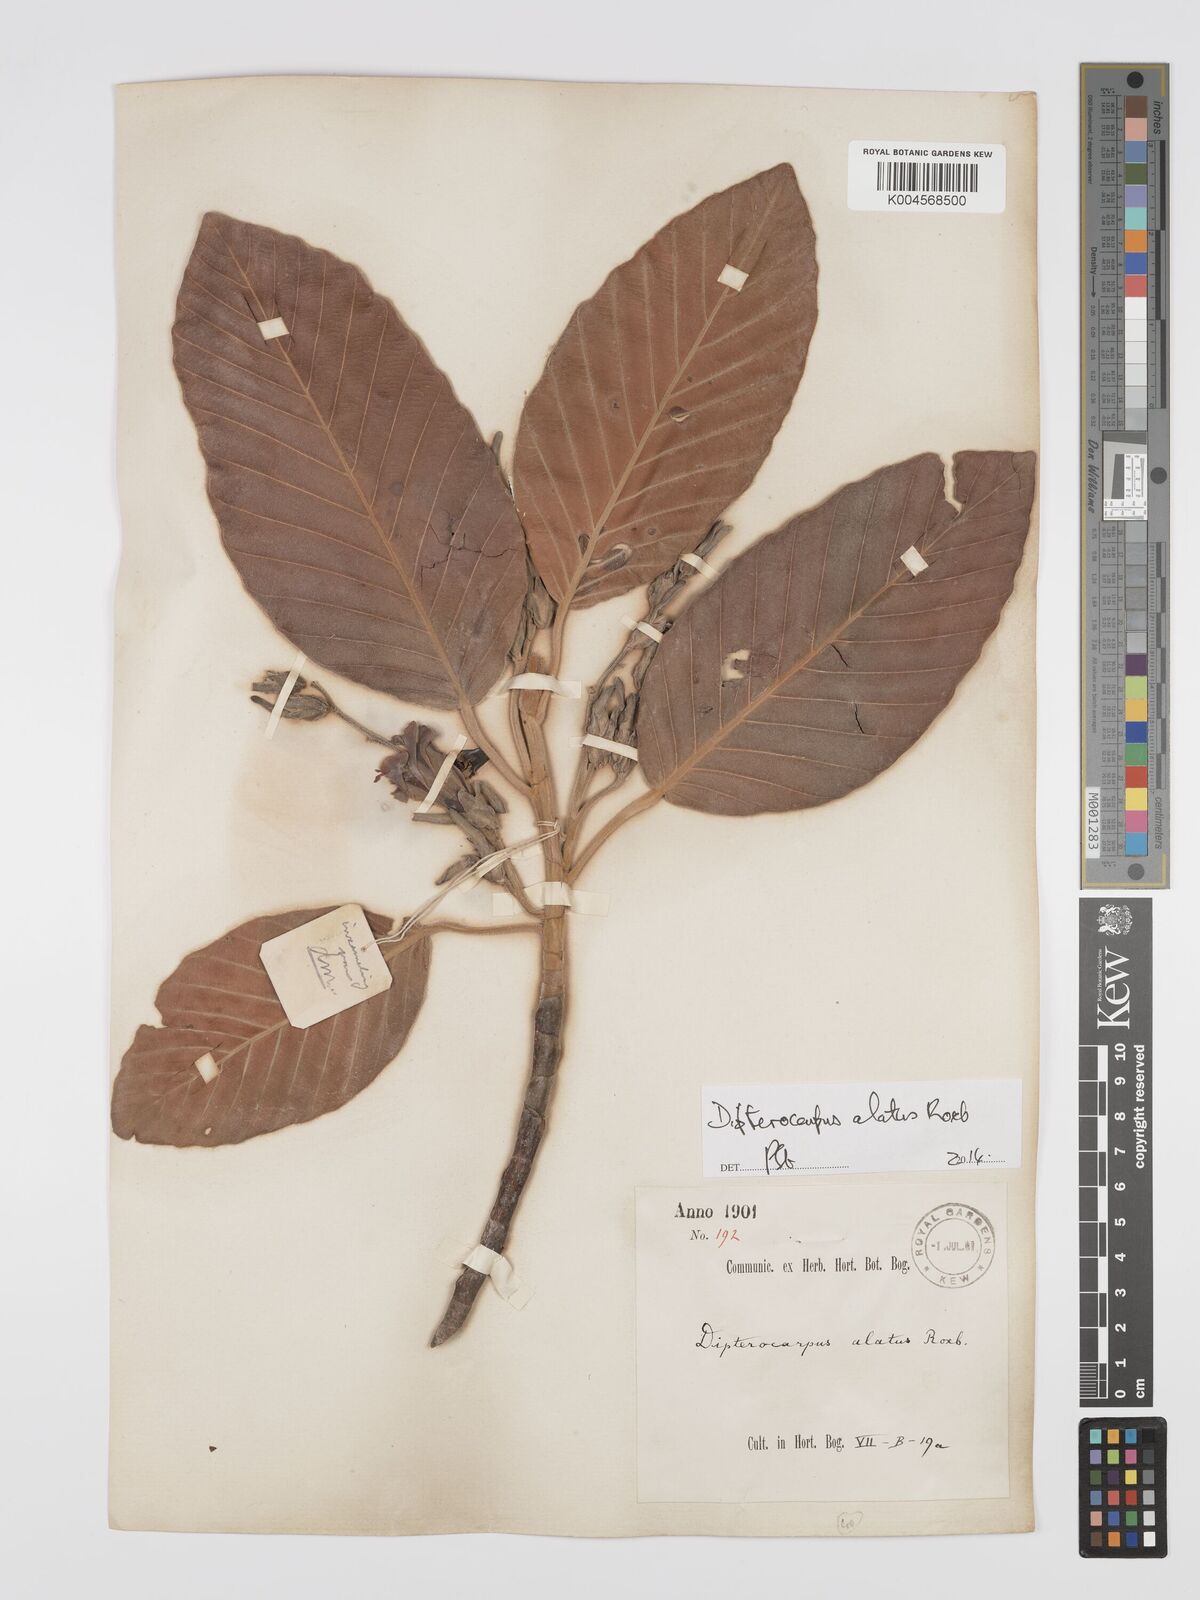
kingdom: Plantae
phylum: Tracheophyta
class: Magnoliopsida
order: Malvales
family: Dipterocarpaceae
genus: Dipterocarpus
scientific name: Dipterocarpus
